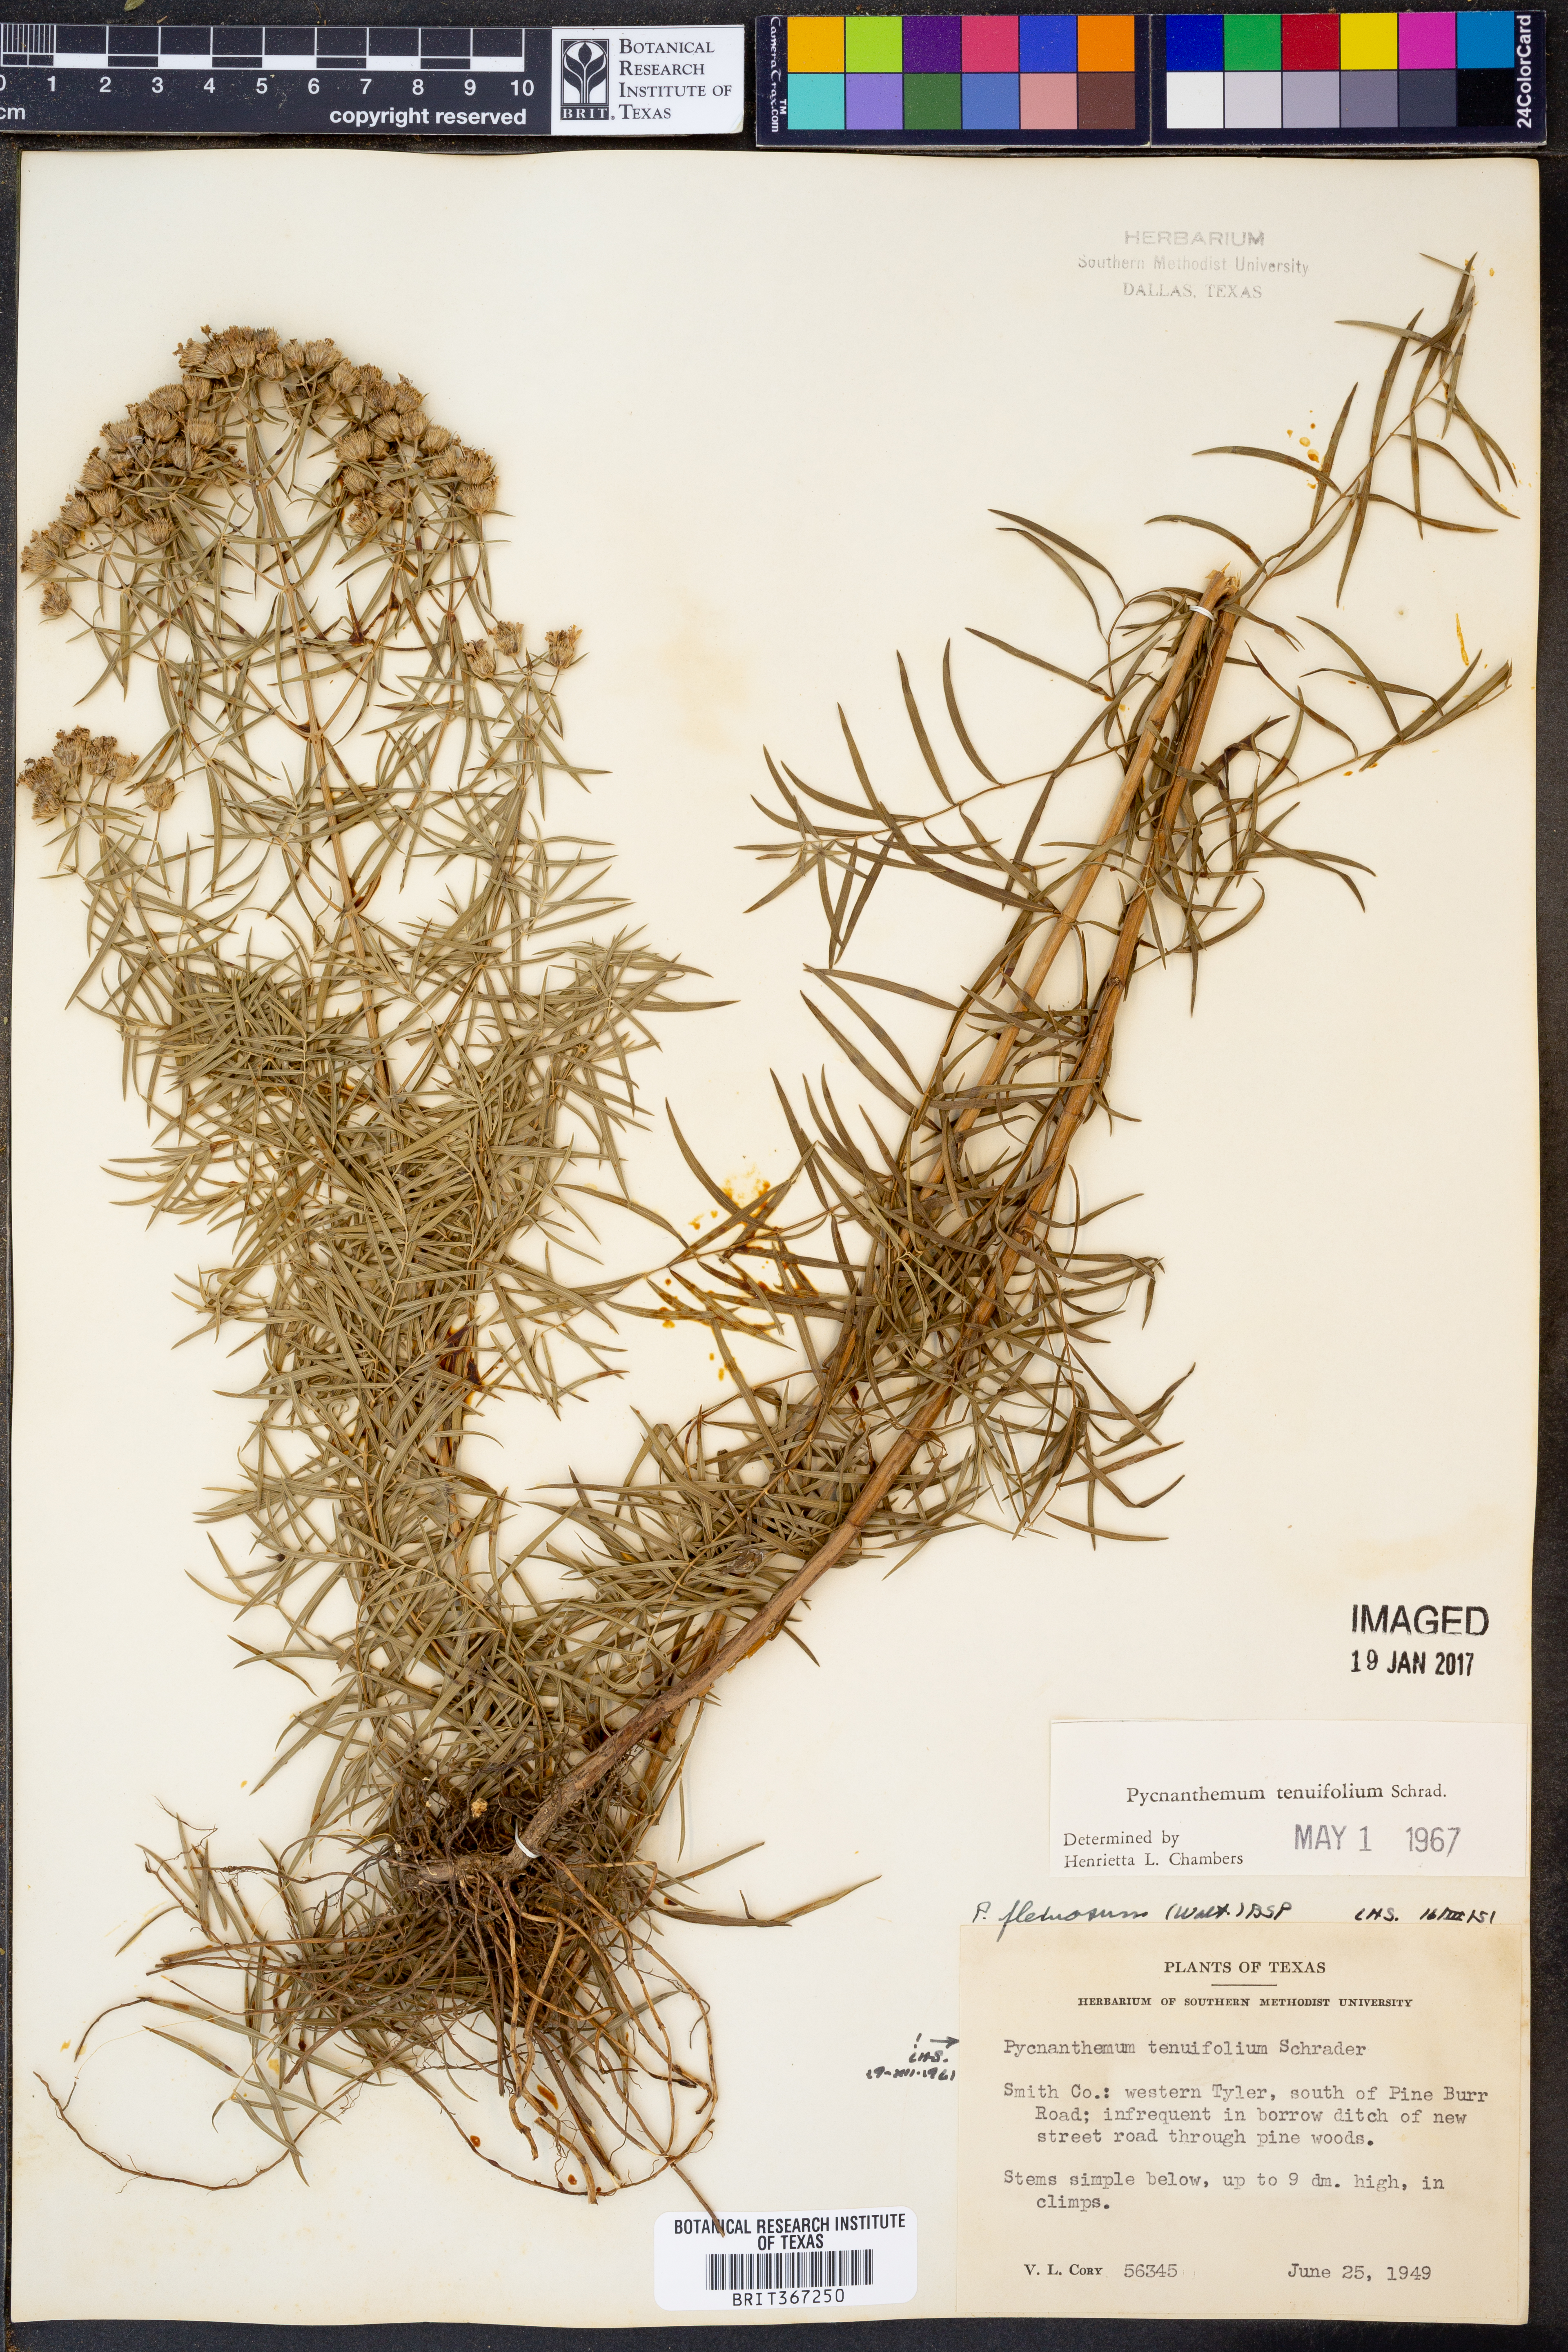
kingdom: Plantae
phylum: Tracheophyta
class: Magnoliopsida
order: Lamiales
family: Lamiaceae
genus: Pycnanthemum
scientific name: Pycnanthemum tenuifolium
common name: Narrow-leaf mountain-mint
